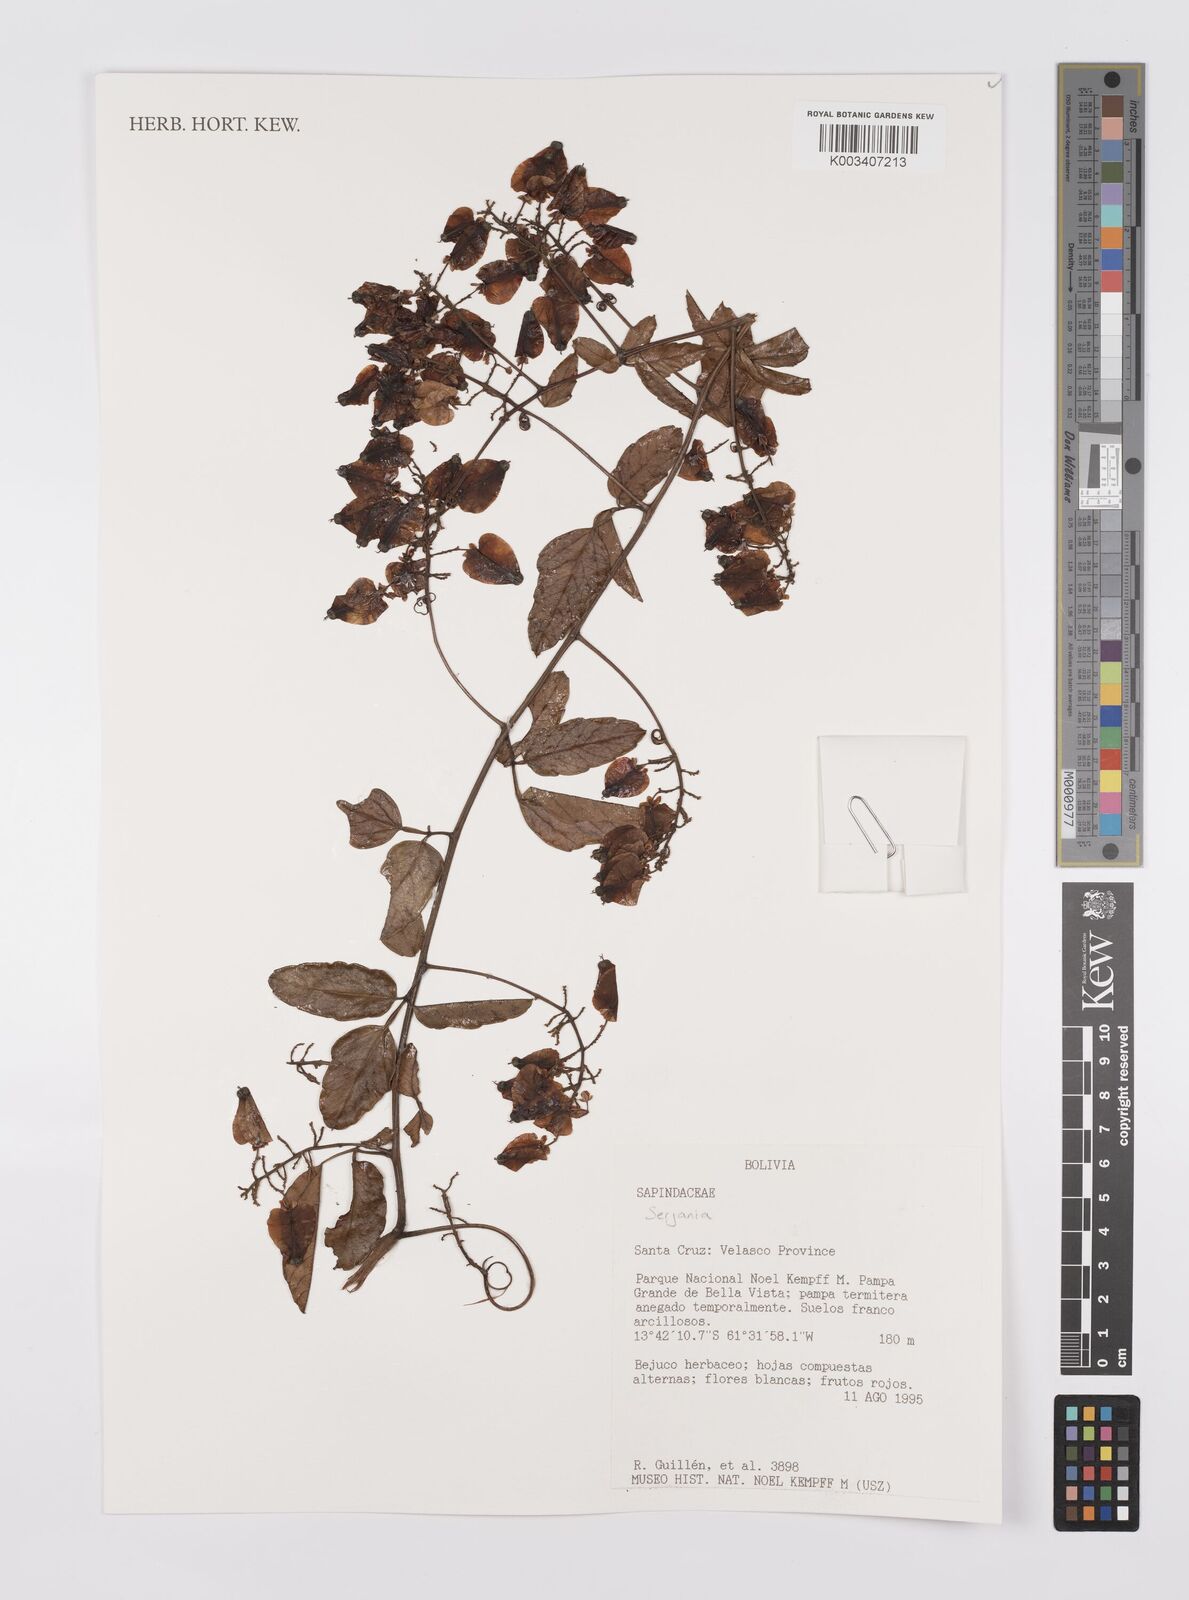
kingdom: Plantae
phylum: Tracheophyta
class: Magnoliopsida
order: Sapindales
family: Sapindaceae
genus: Serjania
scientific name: Serjania
